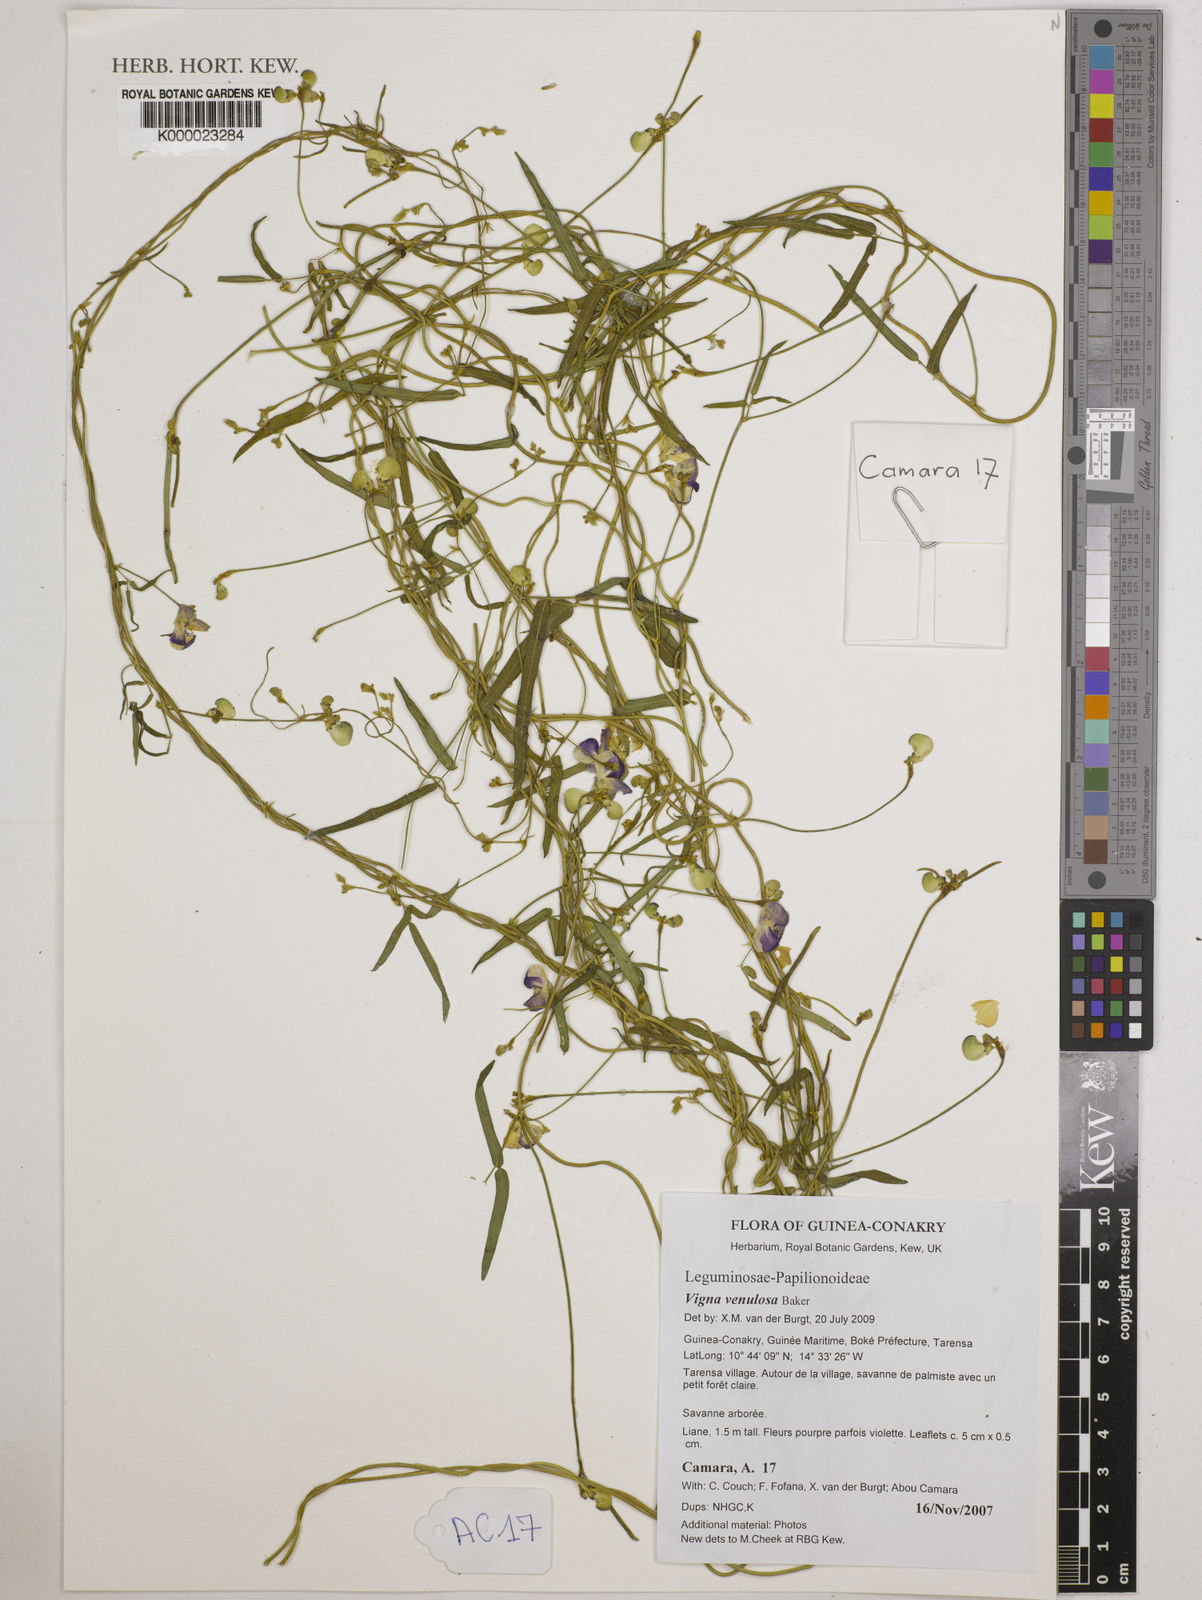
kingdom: Plantae
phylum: Tracheophyta
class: Magnoliopsida
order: Fabales
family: Fabaceae
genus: Vigna
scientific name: Vigna venulosa
